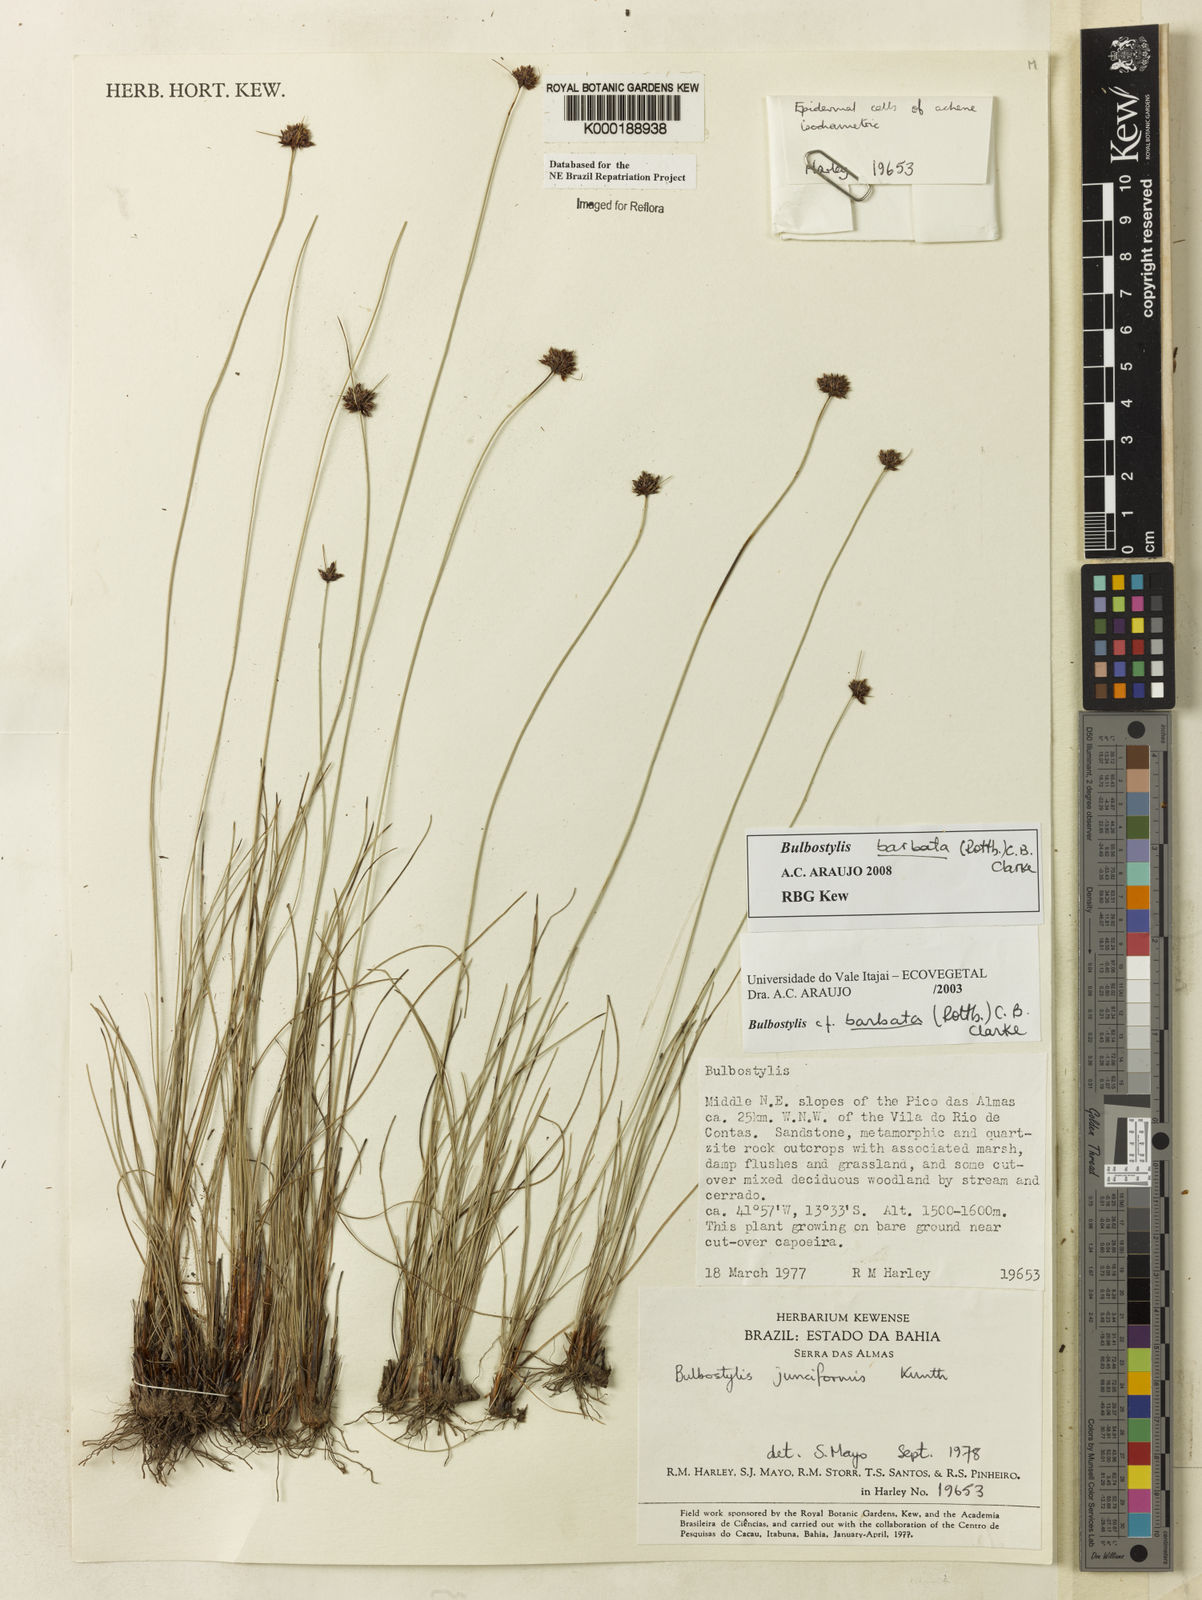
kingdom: Plantae
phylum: Tracheophyta
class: Liliopsida
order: Poales
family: Cyperaceae
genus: Bulbostylis
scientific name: Bulbostylis
